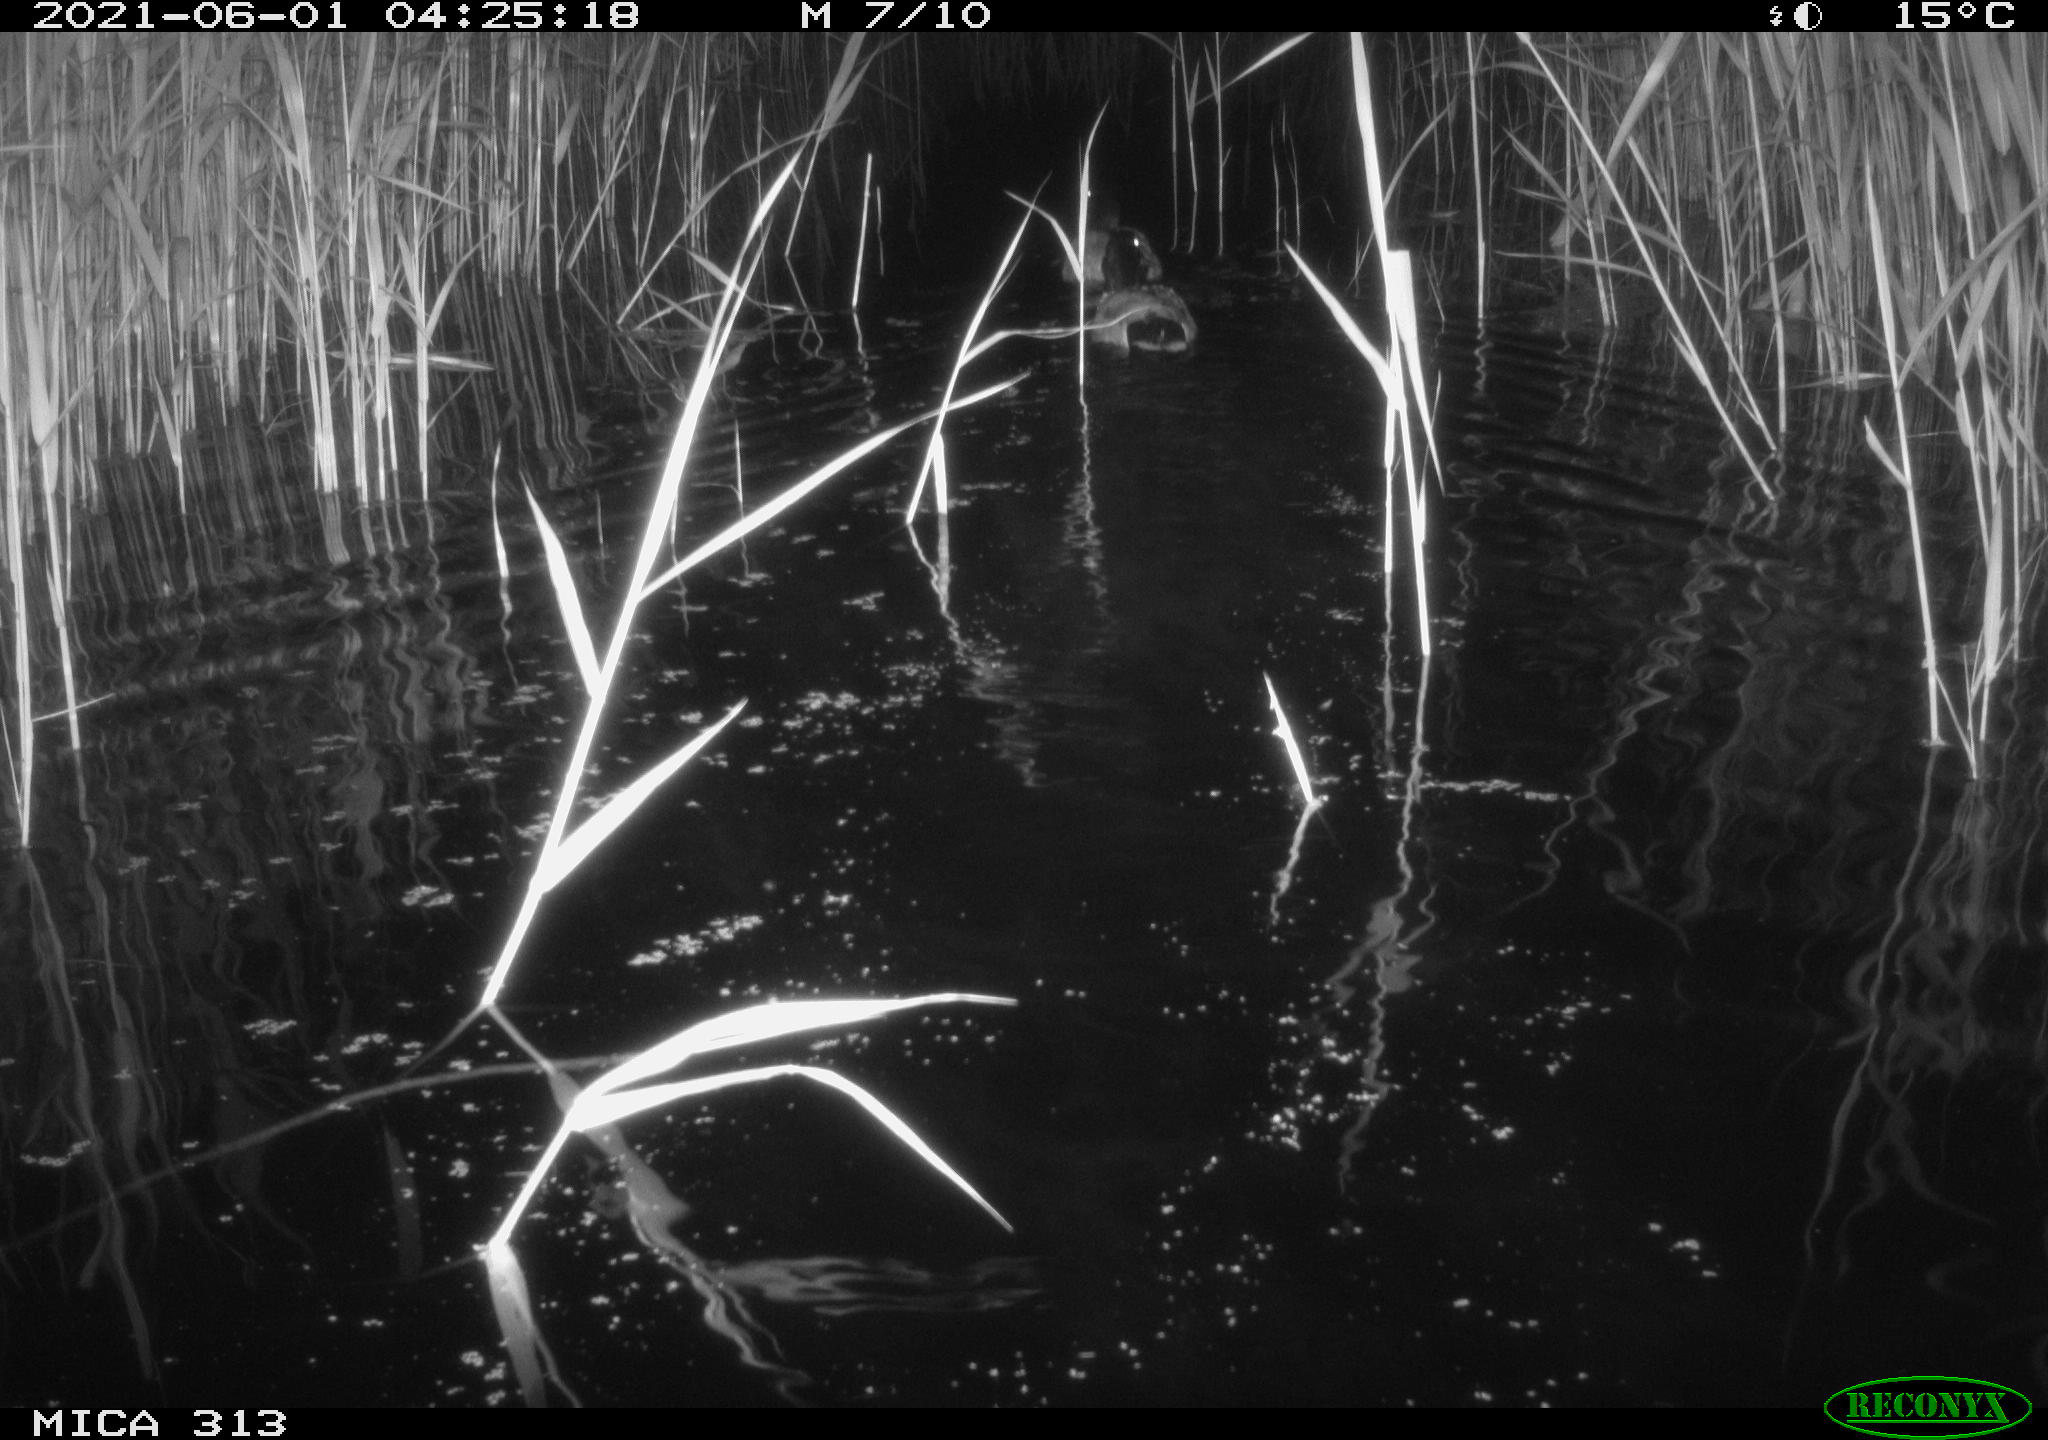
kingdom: Animalia
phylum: Chordata
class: Aves
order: Anseriformes
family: Anatidae
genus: Anas
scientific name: Anas platyrhynchos
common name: Mallard
